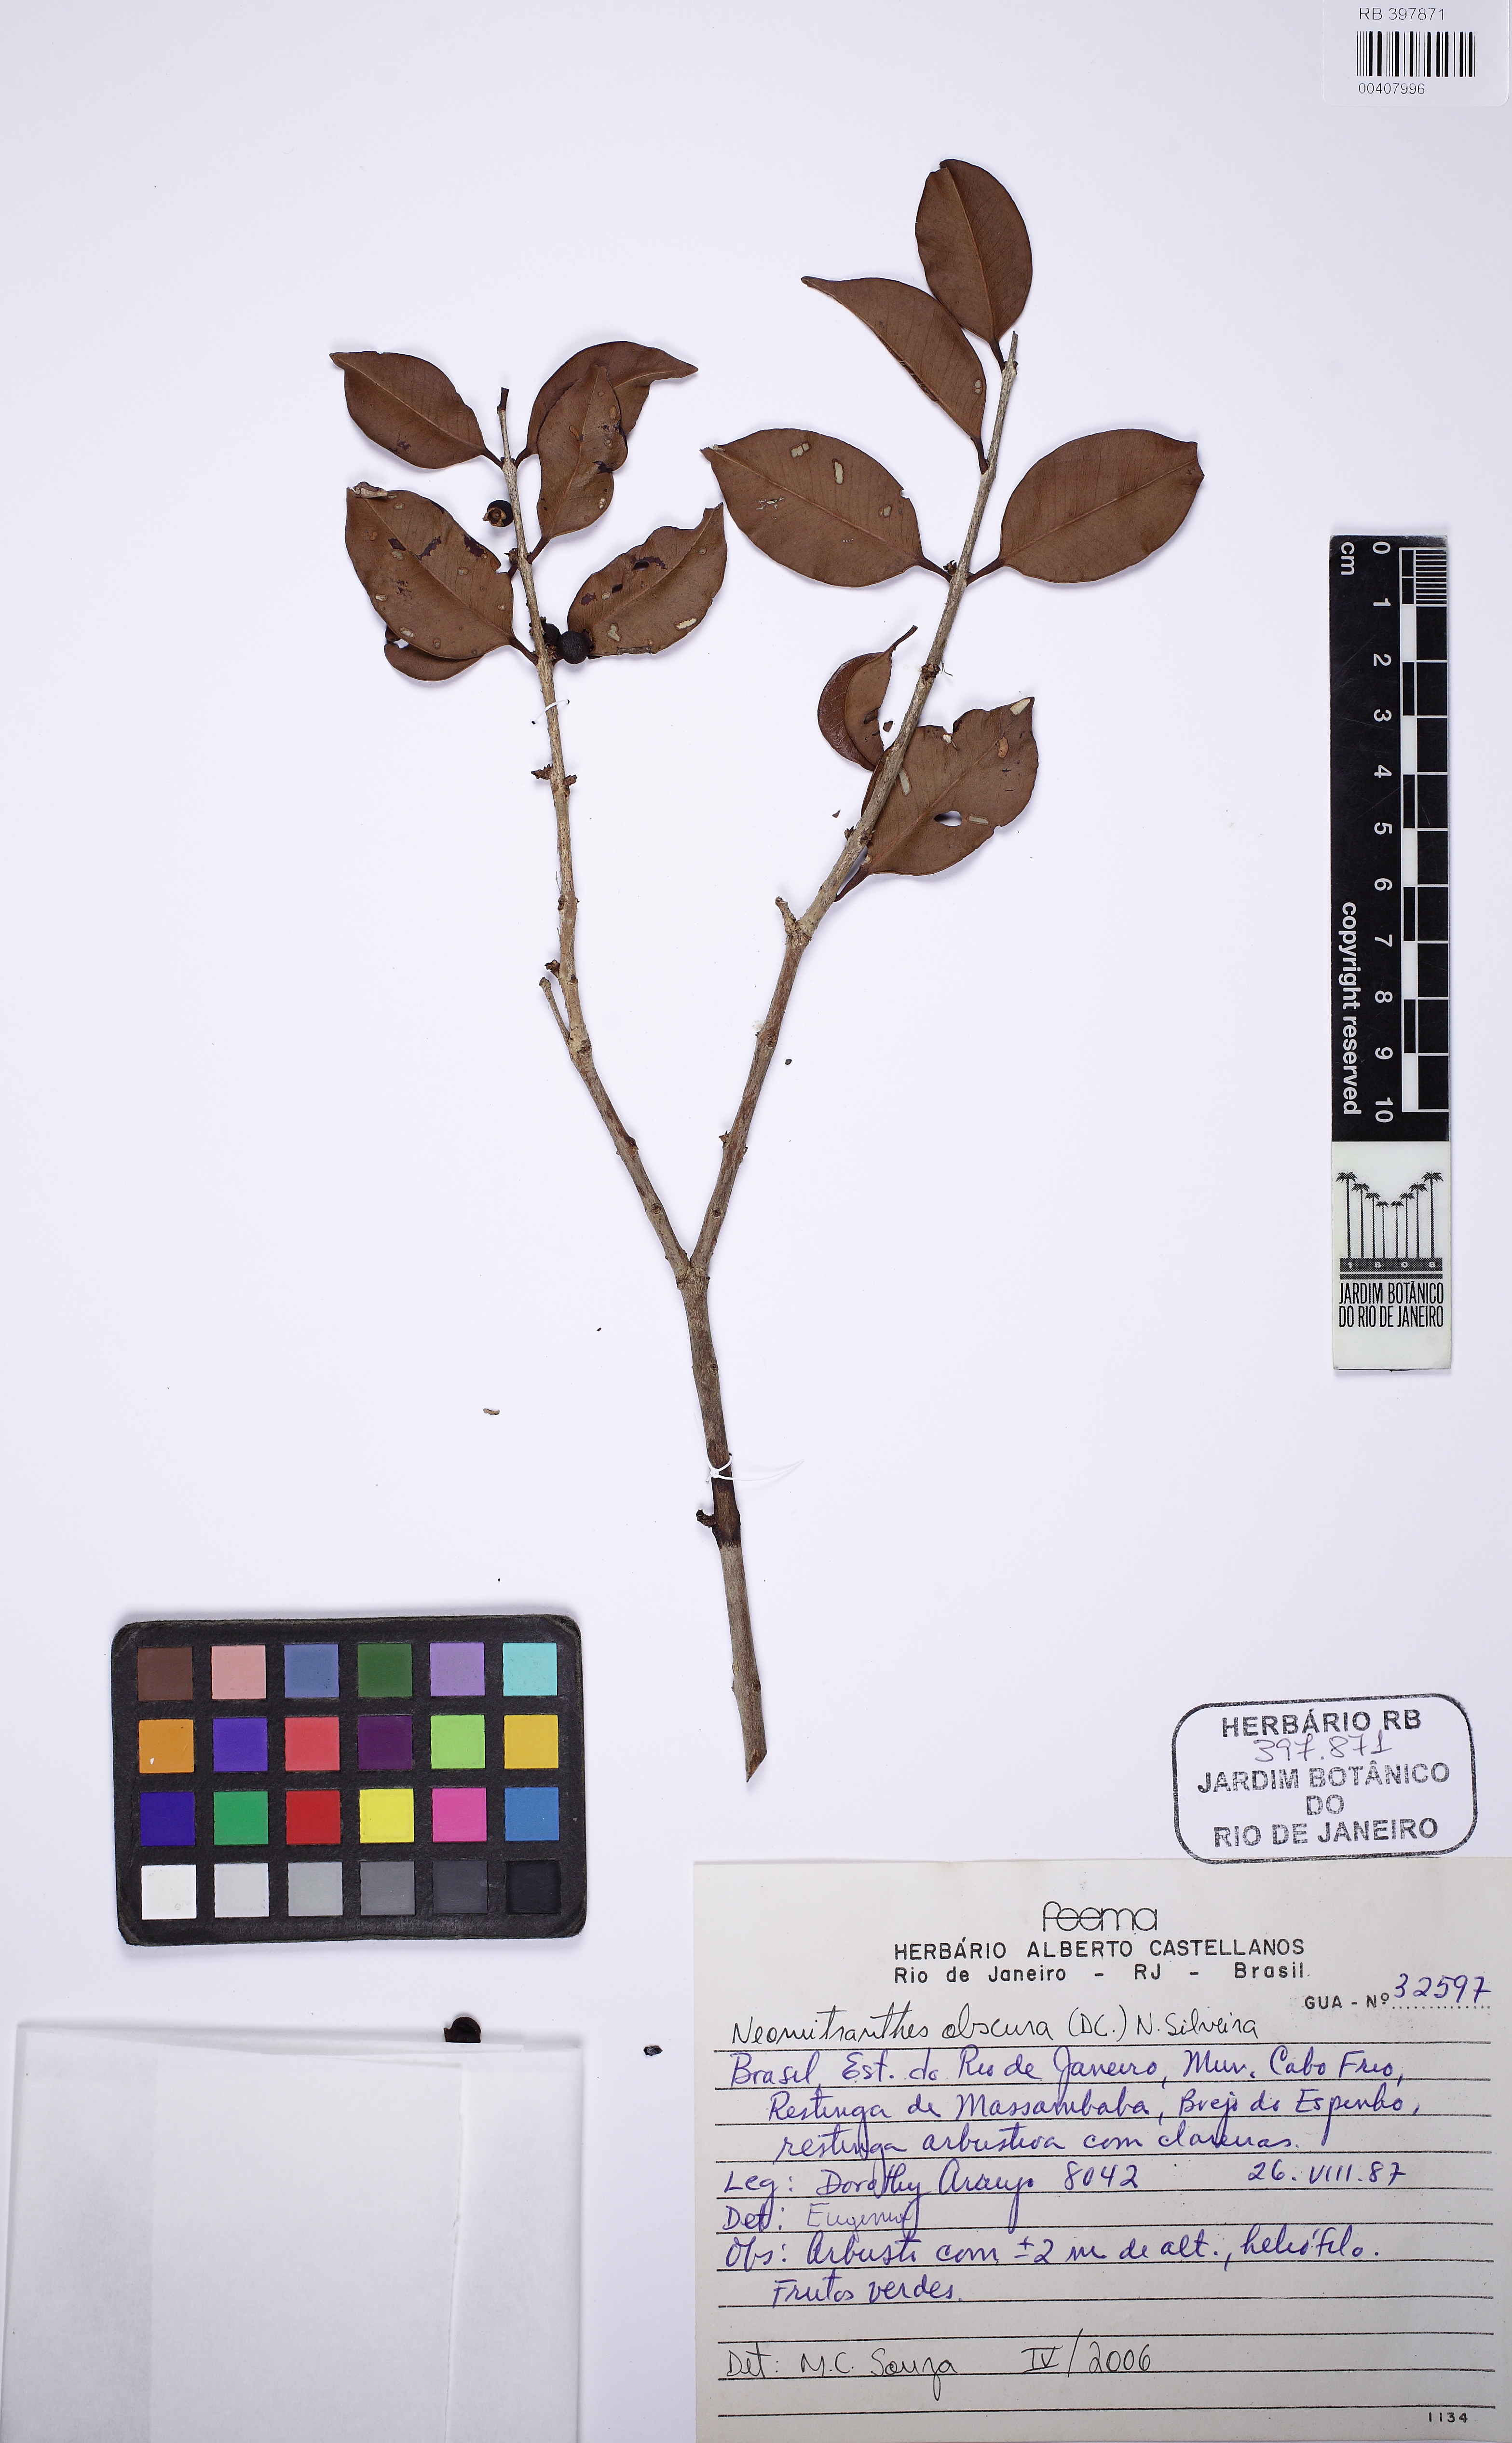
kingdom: Plantae
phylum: Tracheophyta
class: Magnoliopsida
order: Myrtales
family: Myrtaceae
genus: Neomitranthes
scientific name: Neomitranthes obscura
